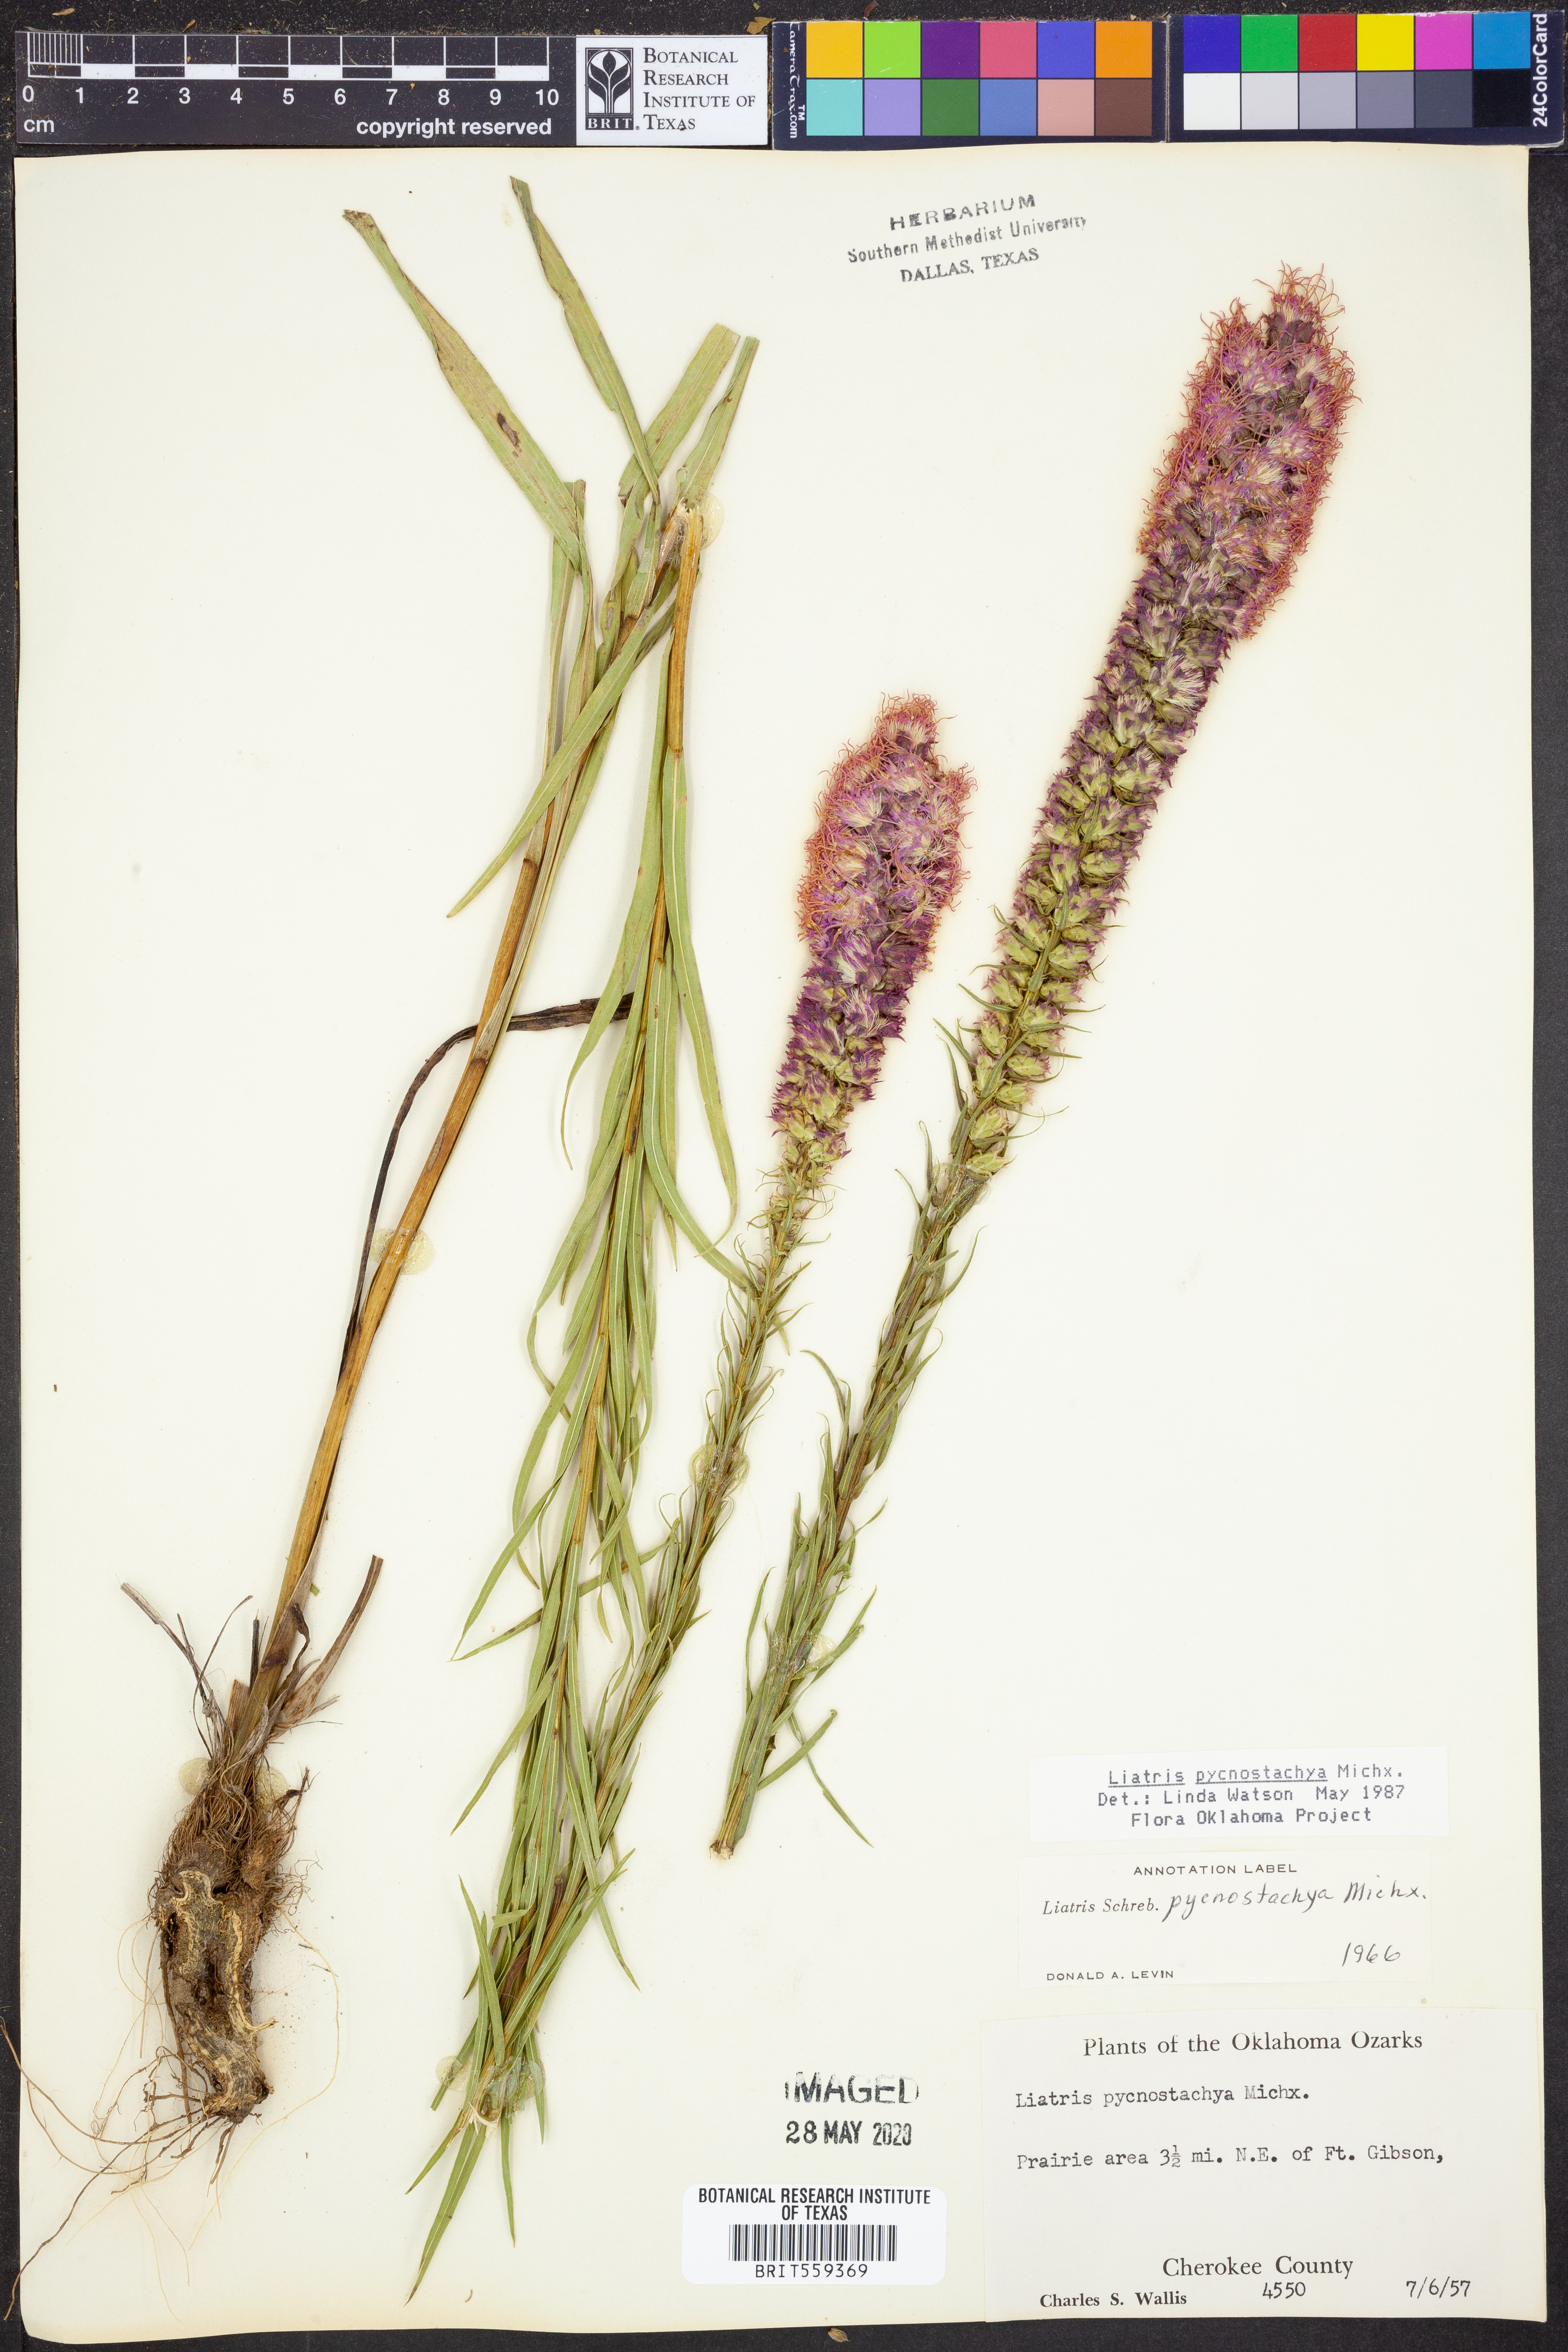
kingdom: Plantae
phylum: Tracheophyta
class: Magnoliopsida
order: Asterales
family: Asteraceae
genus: Liatris
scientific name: Liatris pycnostachya
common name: Cattail gayfeather
